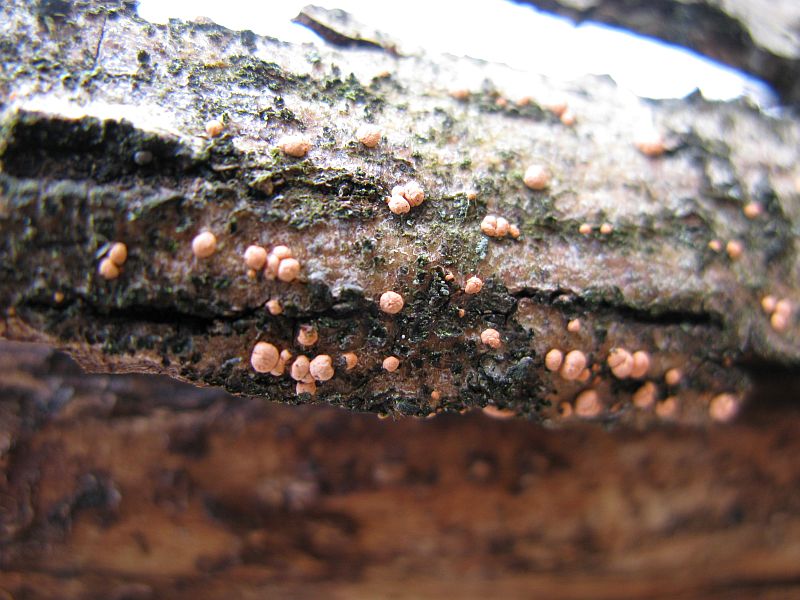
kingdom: Fungi
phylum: Ascomycota
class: Sordariomycetes
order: Hypocreales
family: Nectriaceae
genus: Nectria
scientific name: Nectria cinnabarina
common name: almindelig cinnobersvamp
